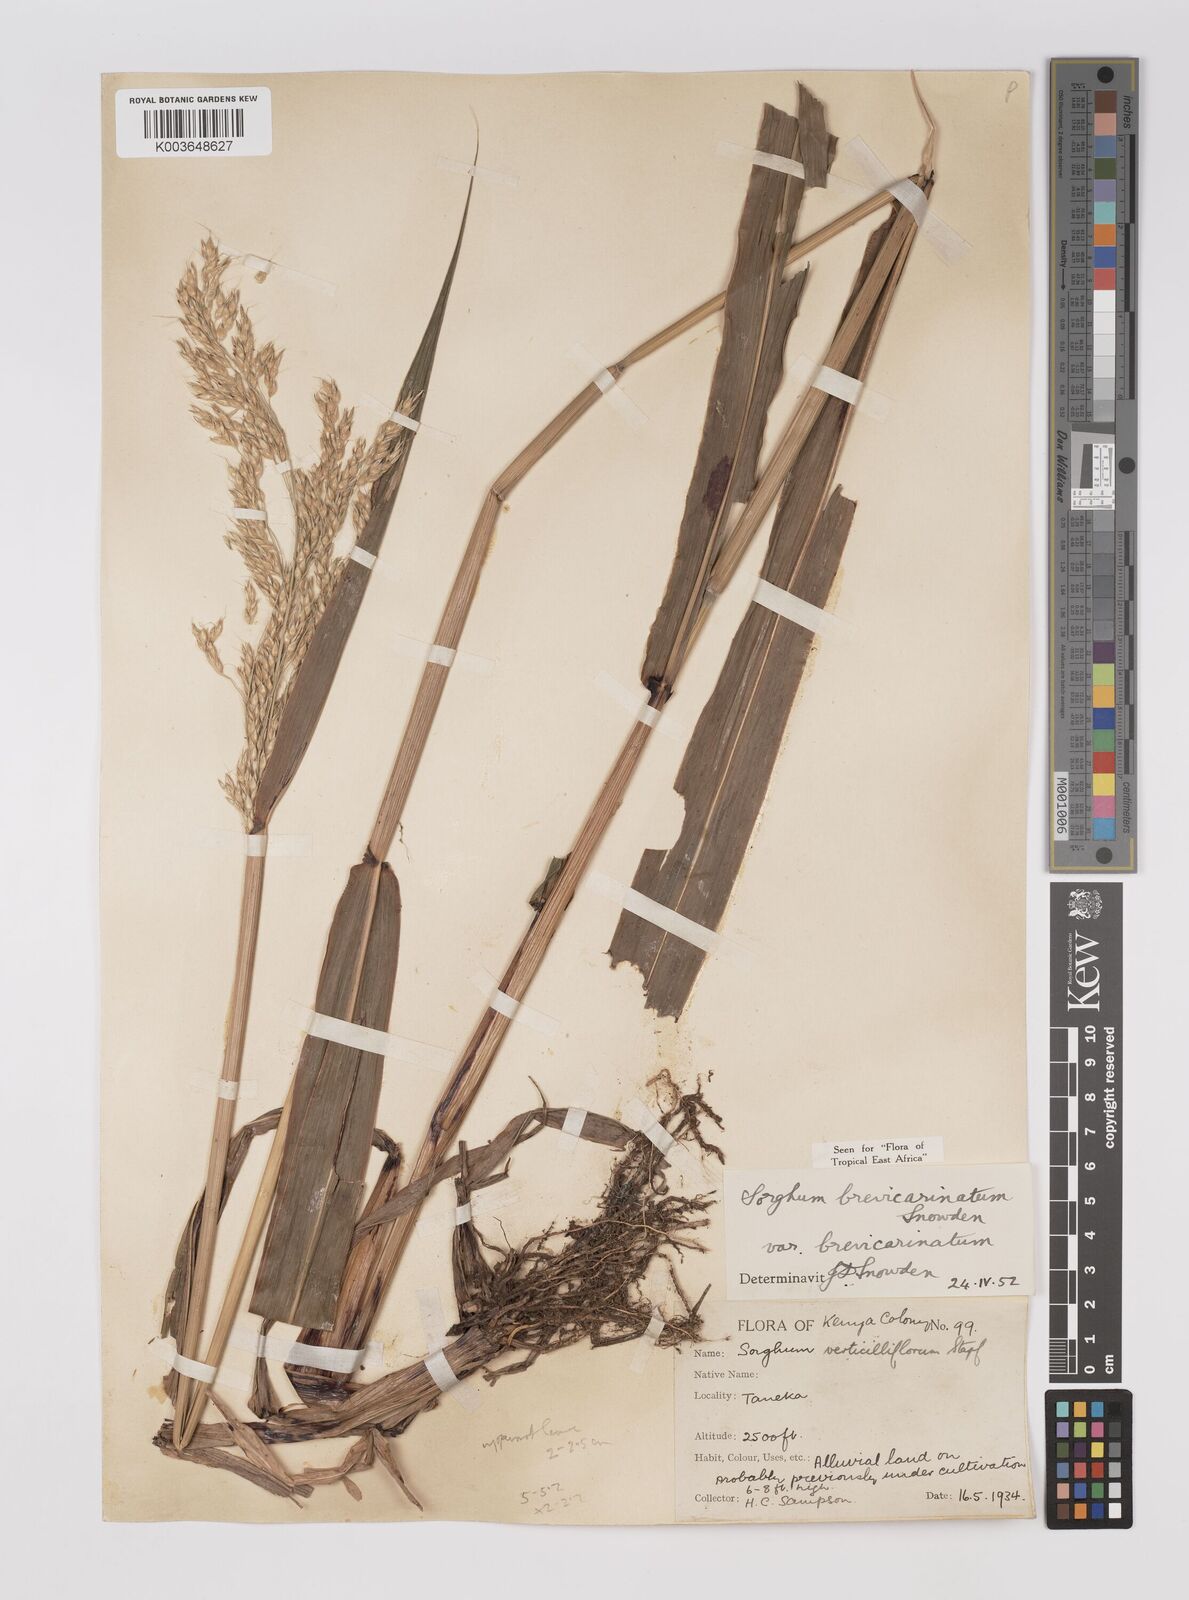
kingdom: Plantae
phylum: Tracheophyta
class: Liliopsida
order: Poales
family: Poaceae
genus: Sorghum
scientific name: Sorghum arundinaceum
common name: Sorghum
